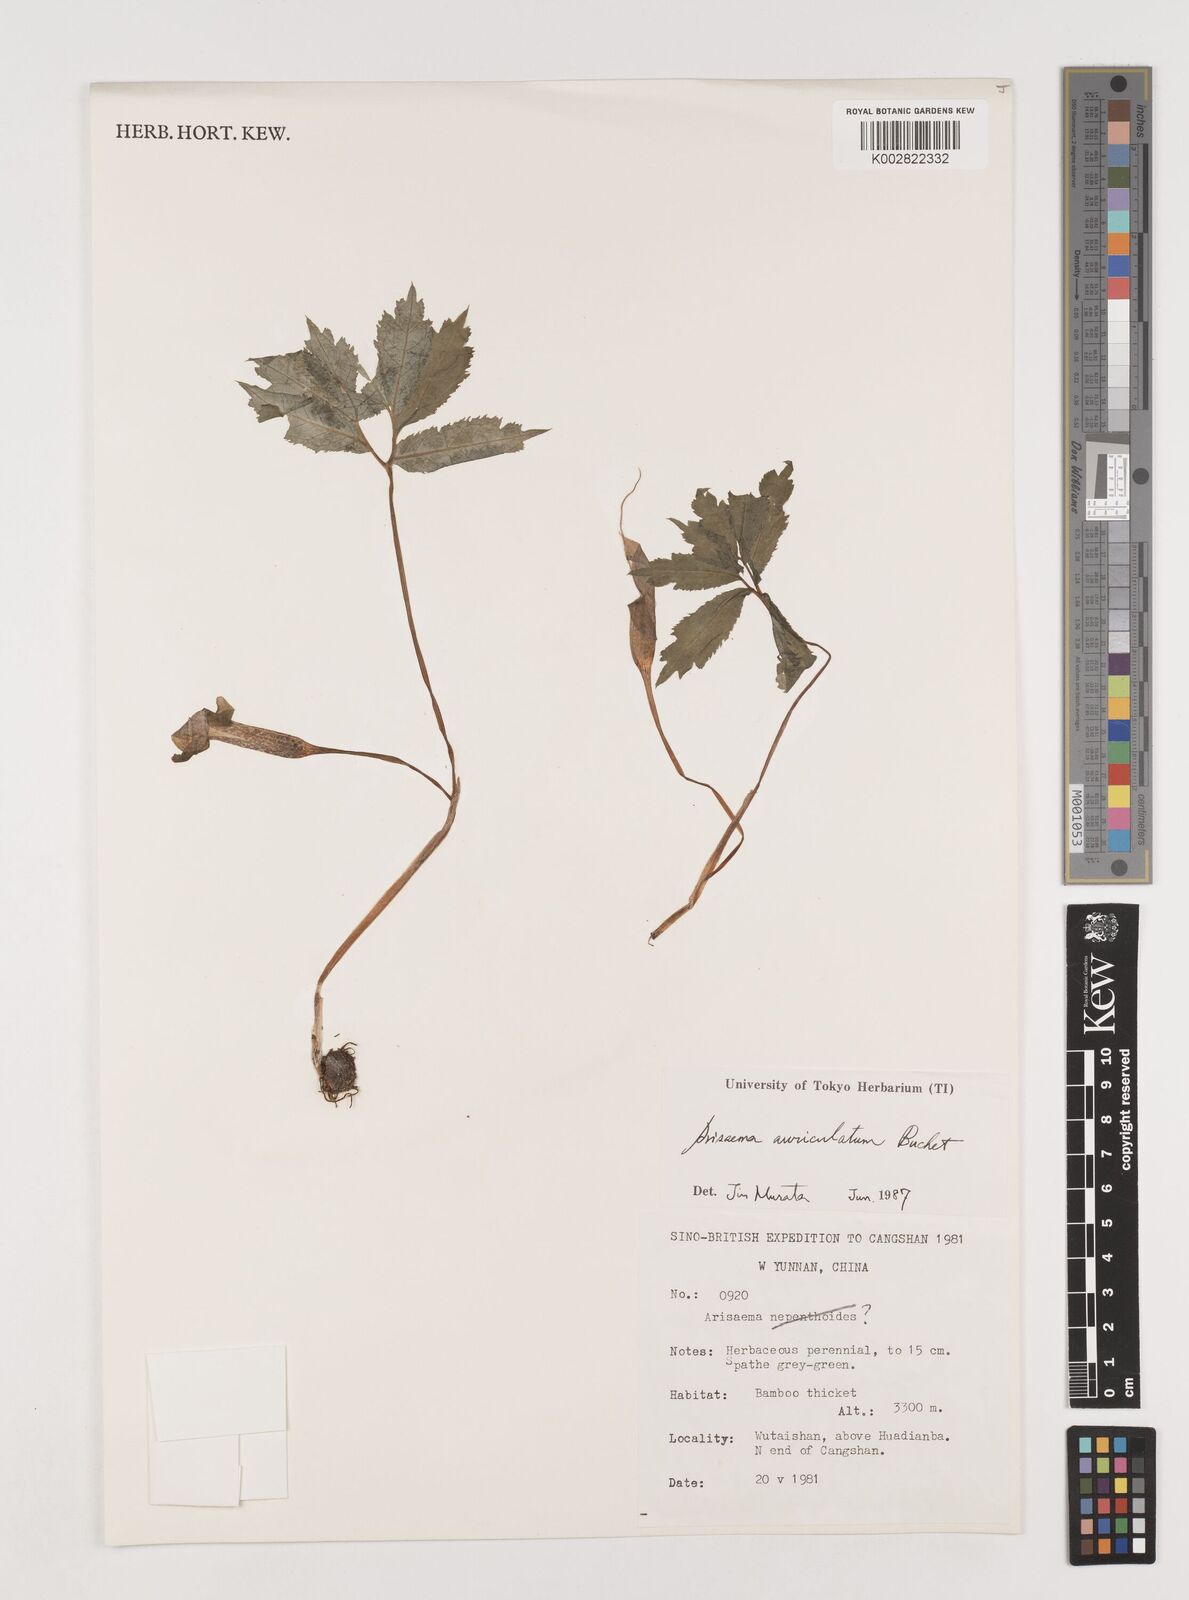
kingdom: Plantae
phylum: Tracheophyta
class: Liliopsida
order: Alismatales
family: Araceae
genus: Arisaema
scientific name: Arisaema auriculatum
